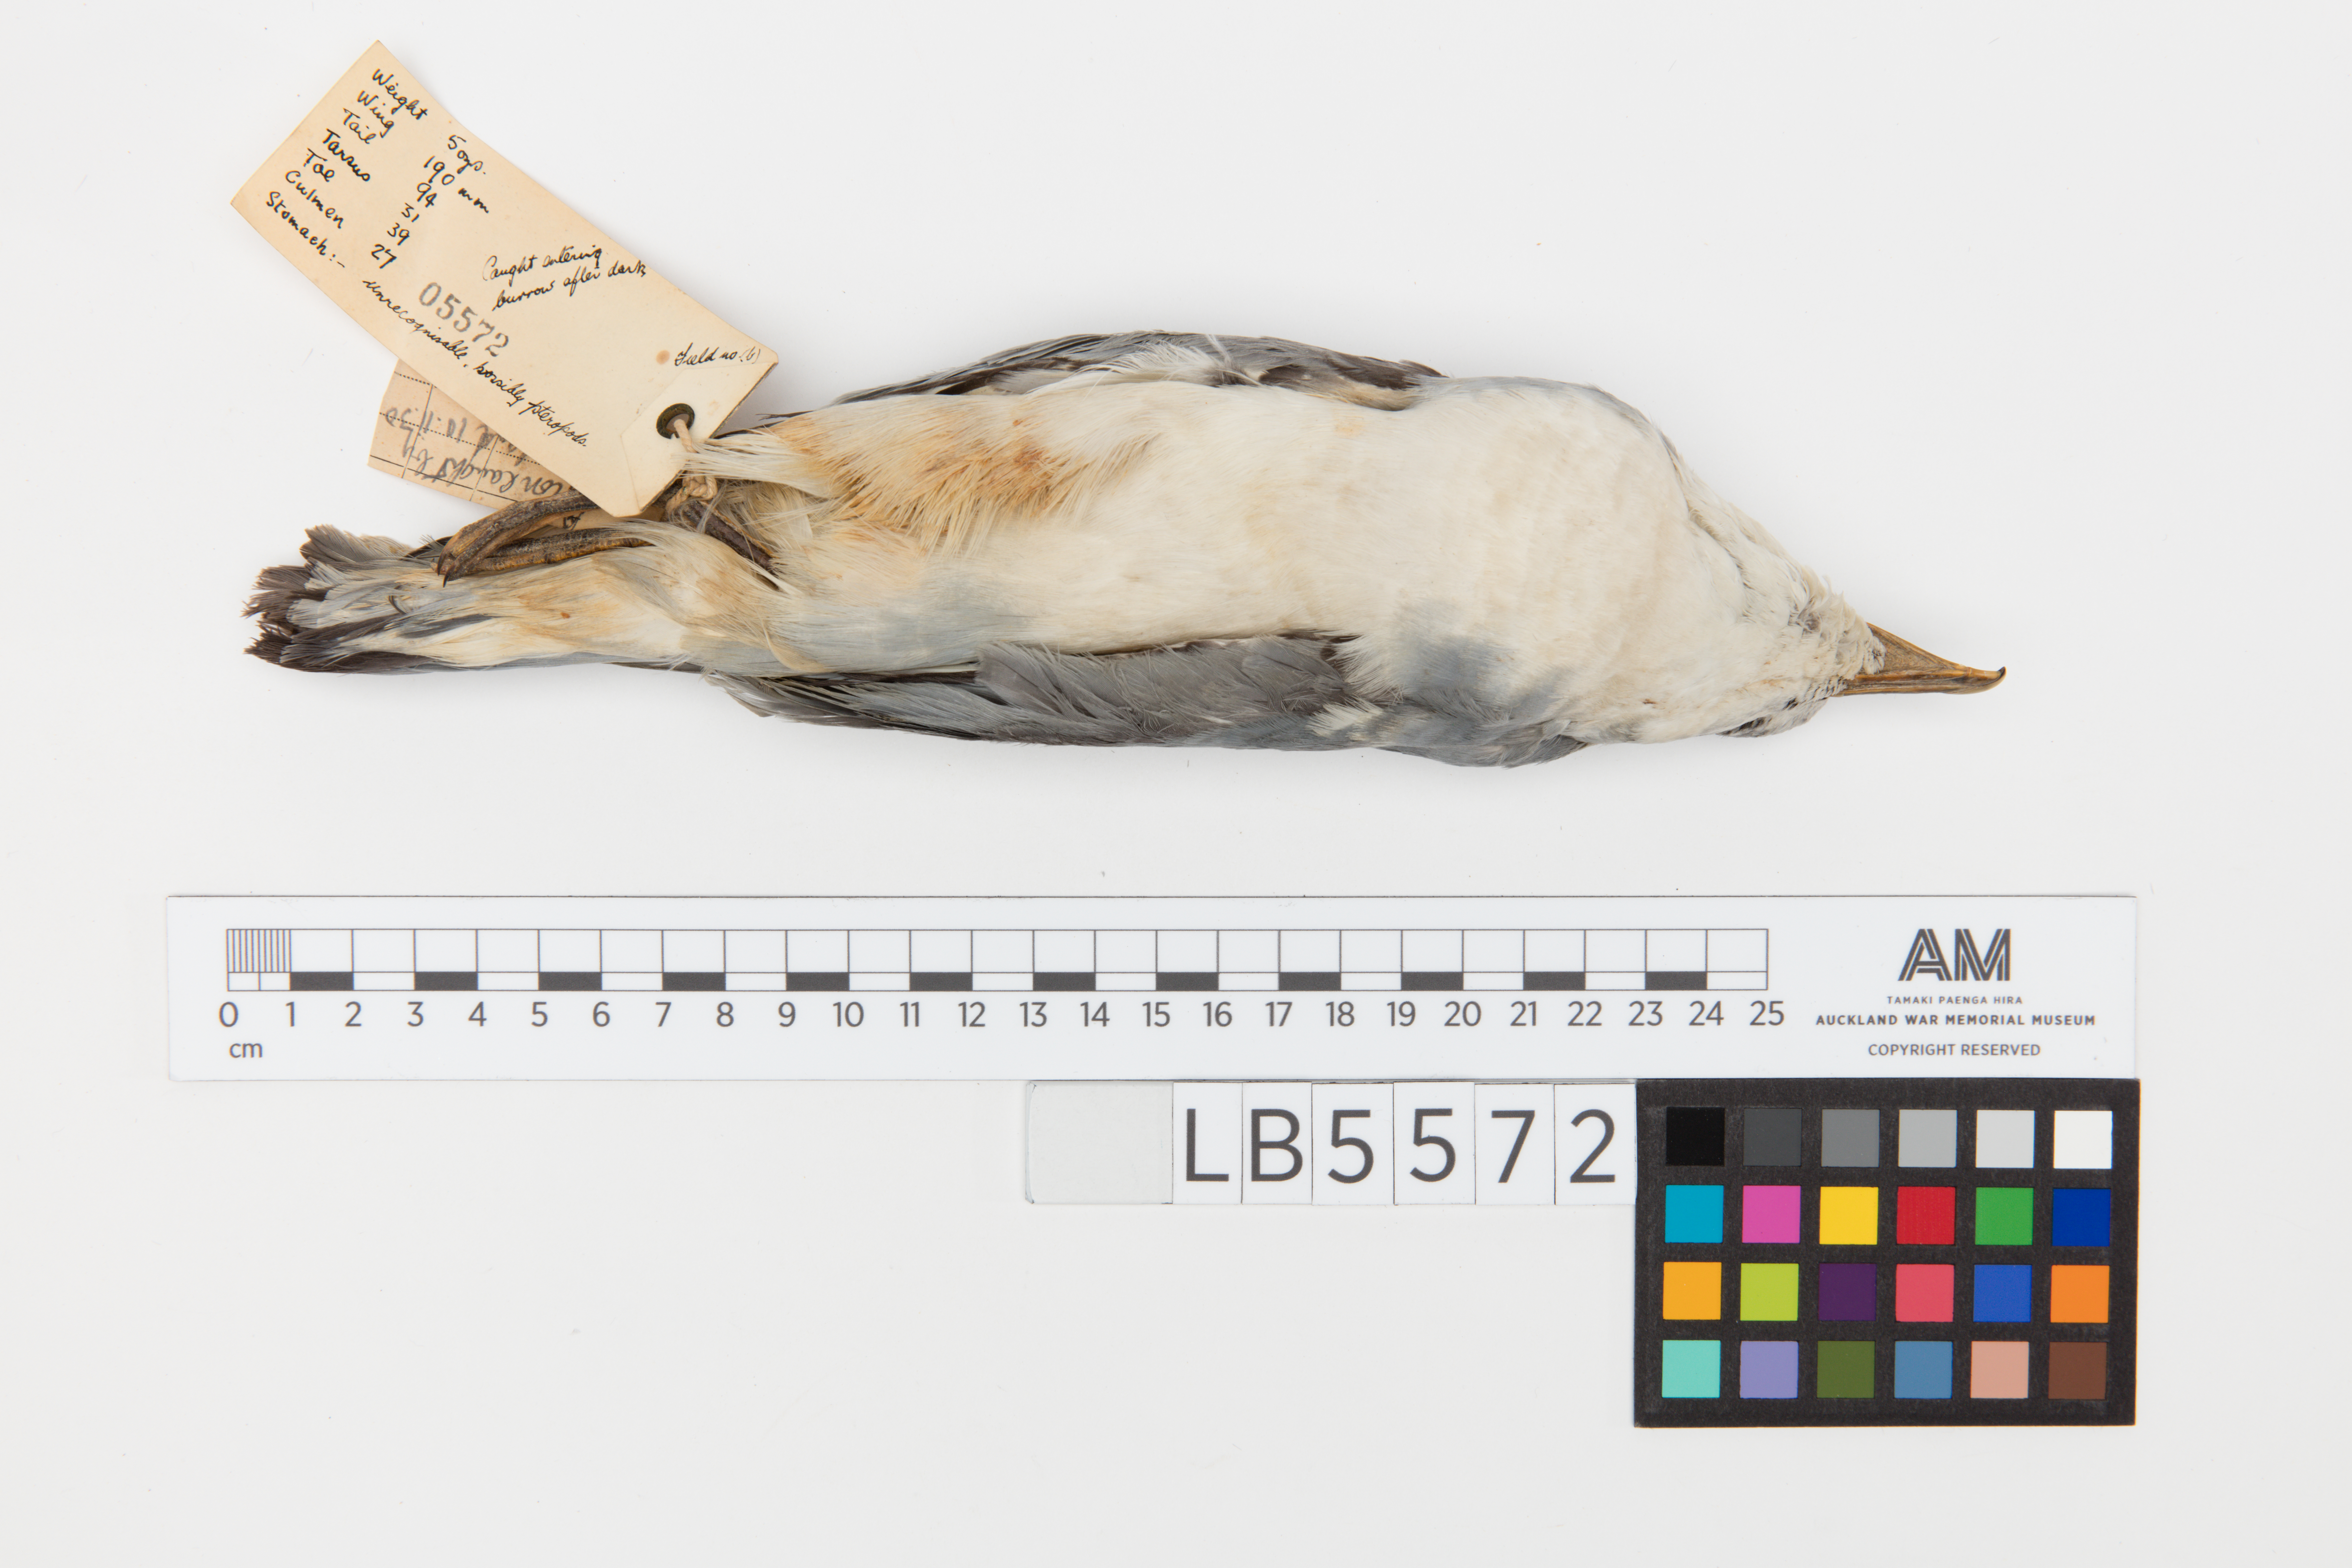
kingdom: Animalia
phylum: Chordata
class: Aves
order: Procellariiformes
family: Procellariidae
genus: Pachyptila
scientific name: Pachyptila desolata
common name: Antarctic prion
